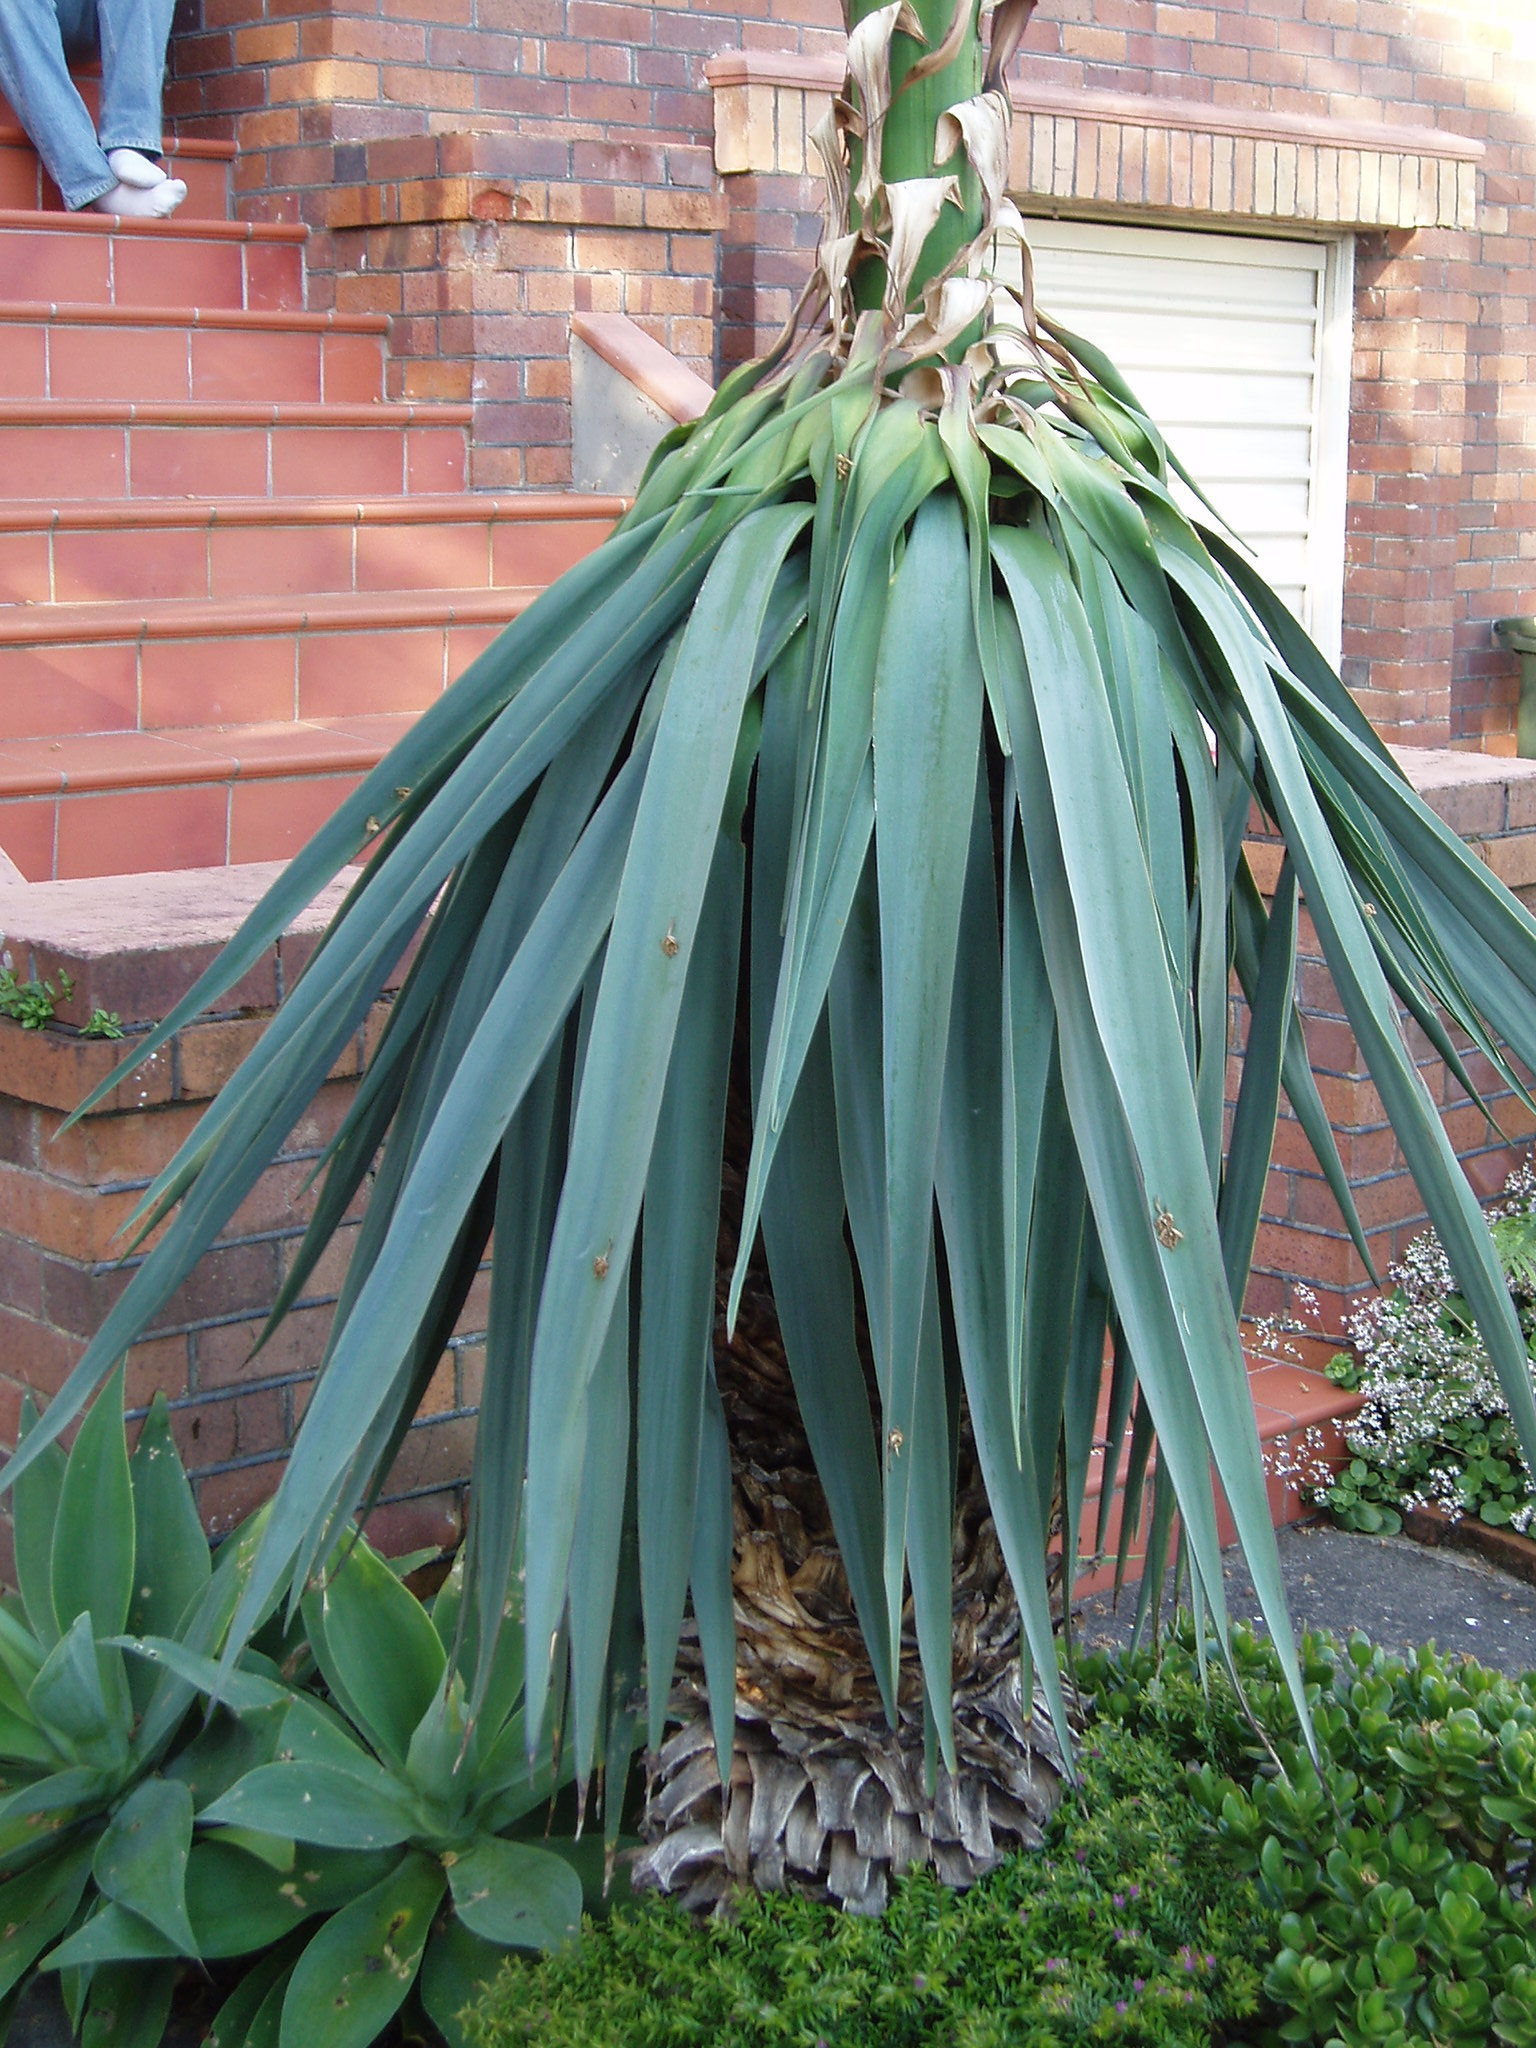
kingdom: Plantae
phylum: Tracheophyta
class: Liliopsida
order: Asparagales
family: Asparagaceae
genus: Furcraea
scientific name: Furcraea parmentieri
